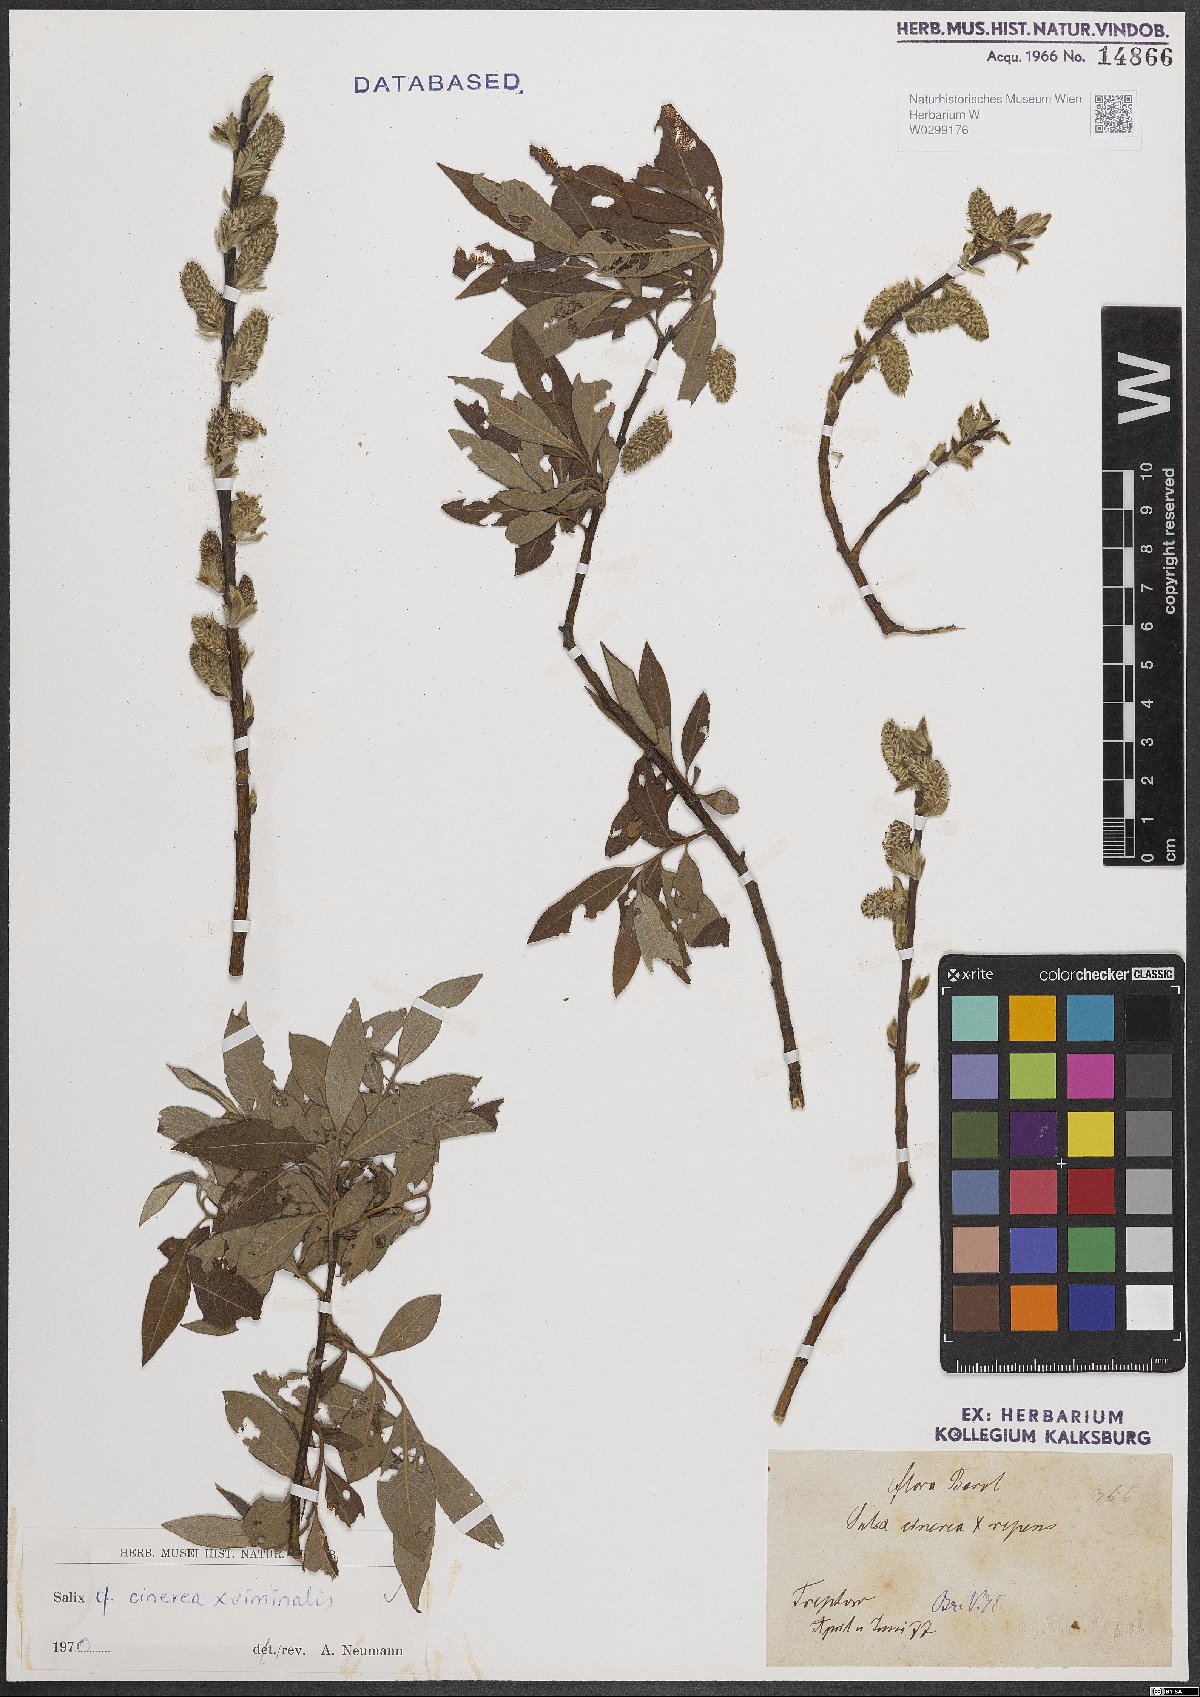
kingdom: Plantae
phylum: Tracheophyta
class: Magnoliopsida
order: Malpighiales
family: Salicaceae
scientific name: Salicaceae
